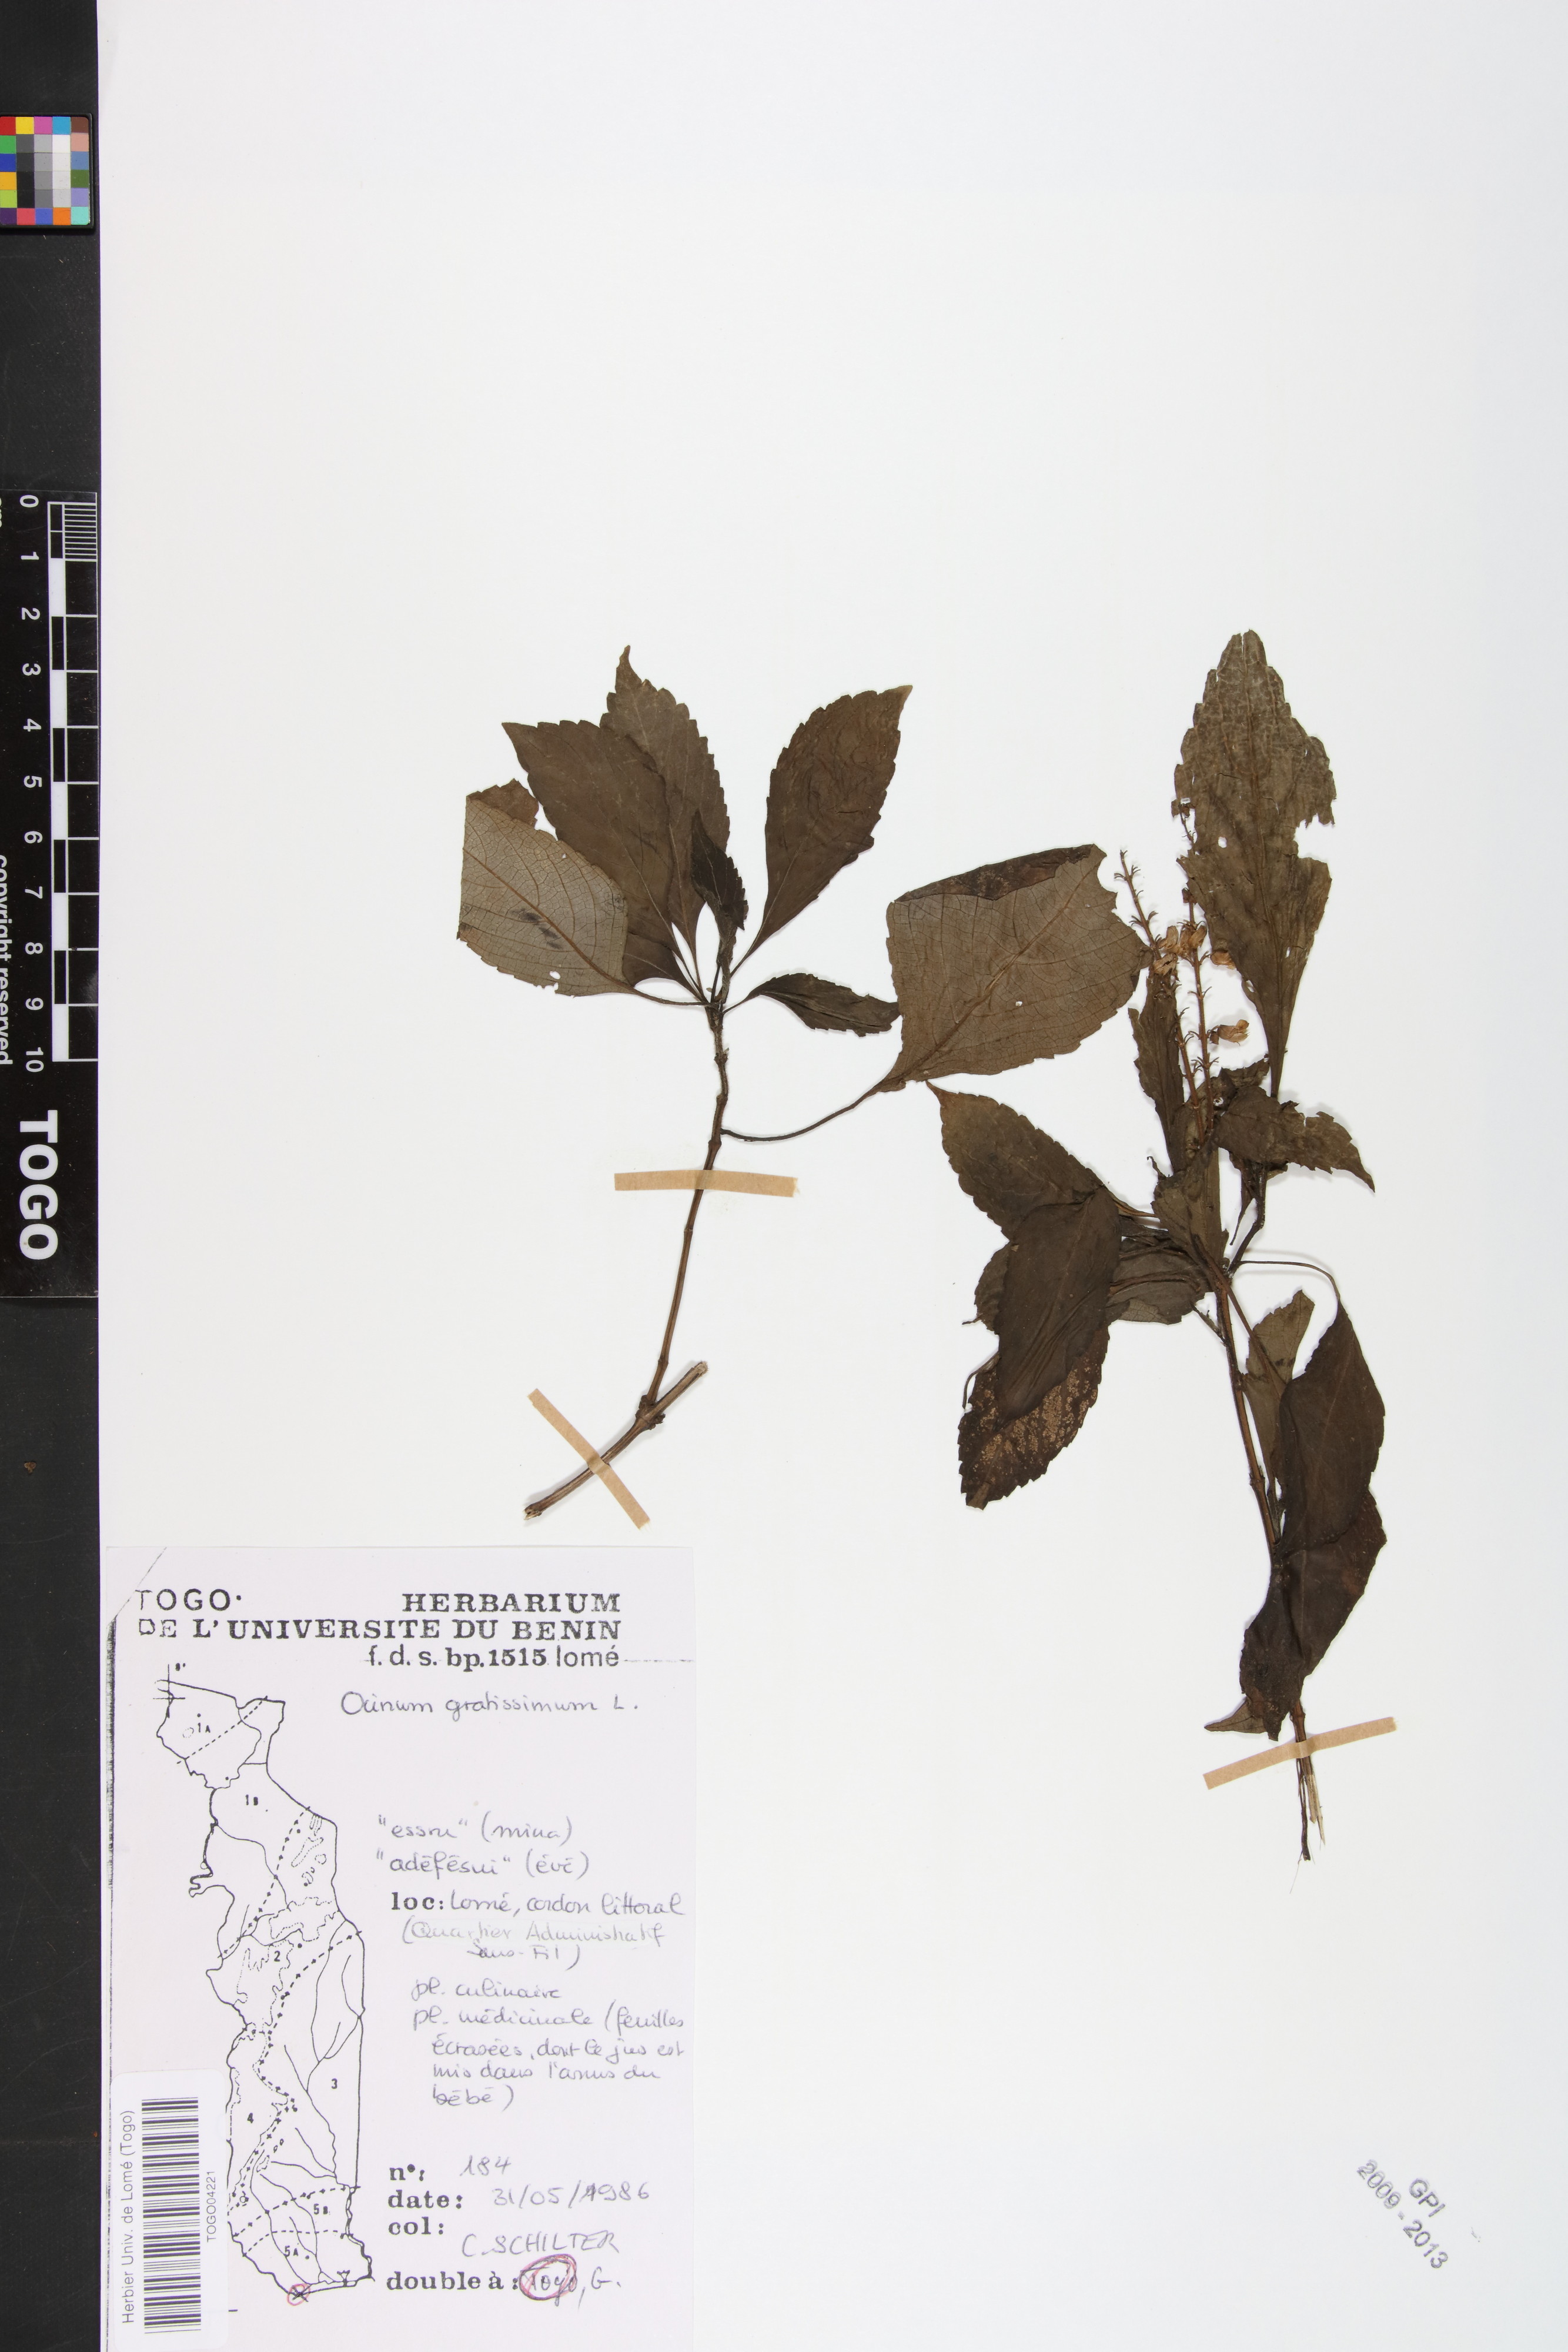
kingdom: Plantae
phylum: Tracheophyta
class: Magnoliopsida
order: Lamiales
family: Lamiaceae
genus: Ocimum
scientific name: Ocimum gratissimum
